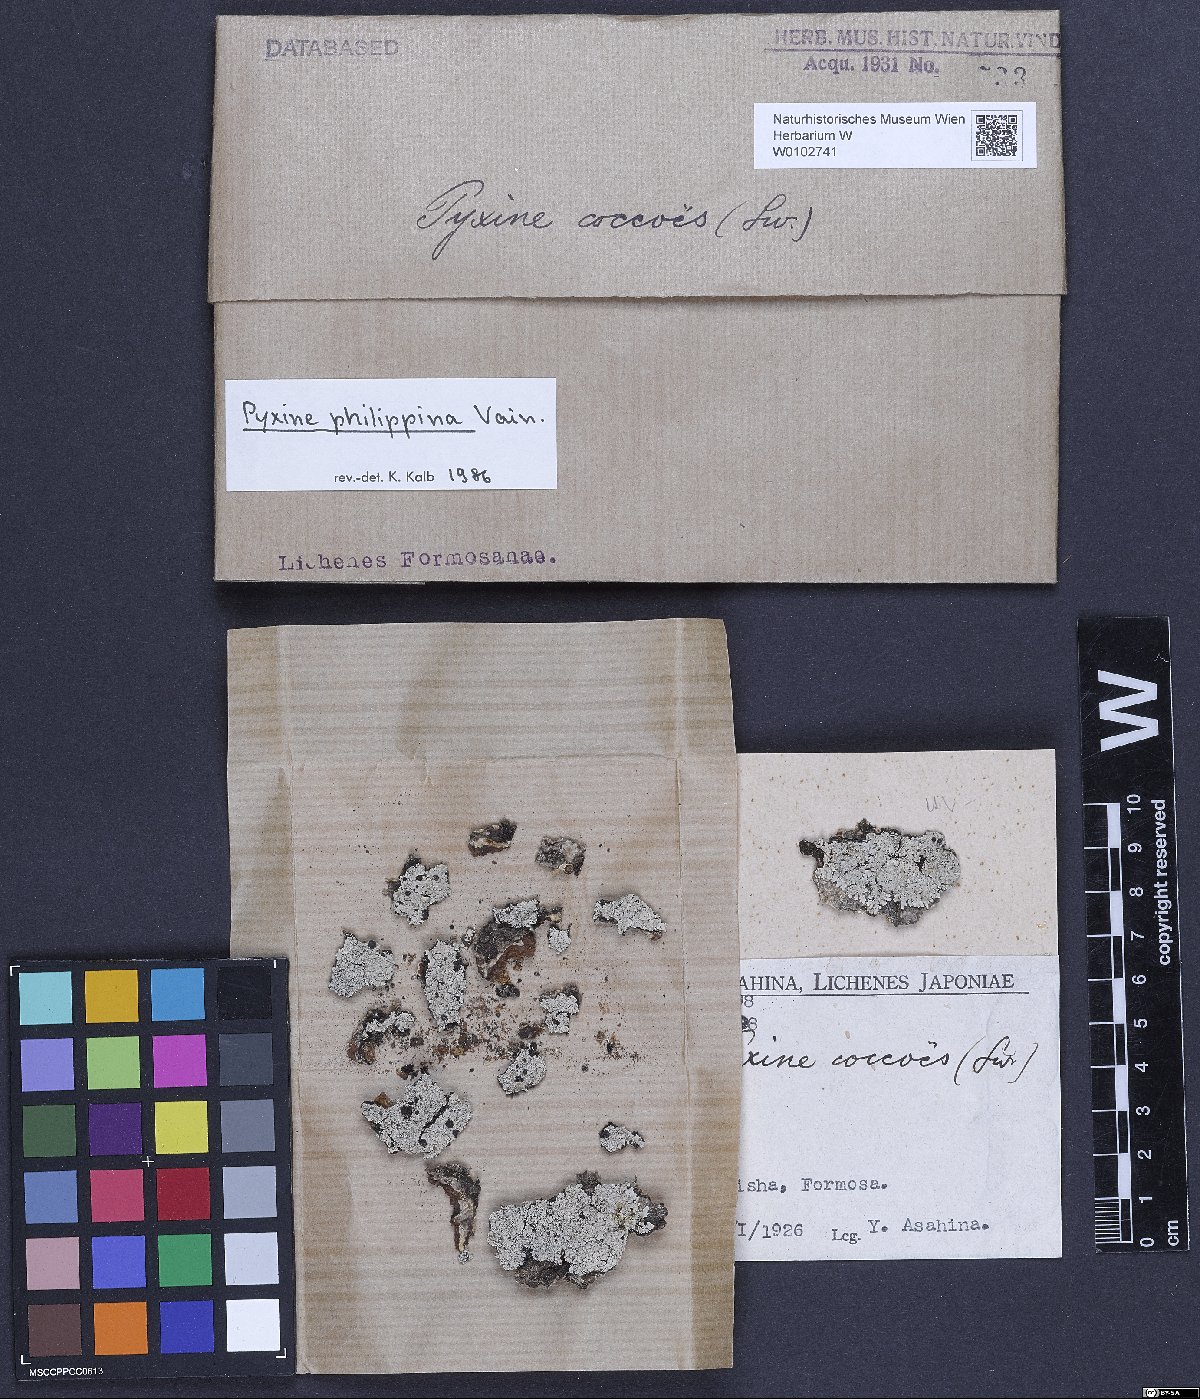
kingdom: Fungi
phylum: Ascomycota
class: Lecanoromycetes
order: Caliciales
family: Caliciaceae
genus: Pyxine
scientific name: Pyxine philippina
